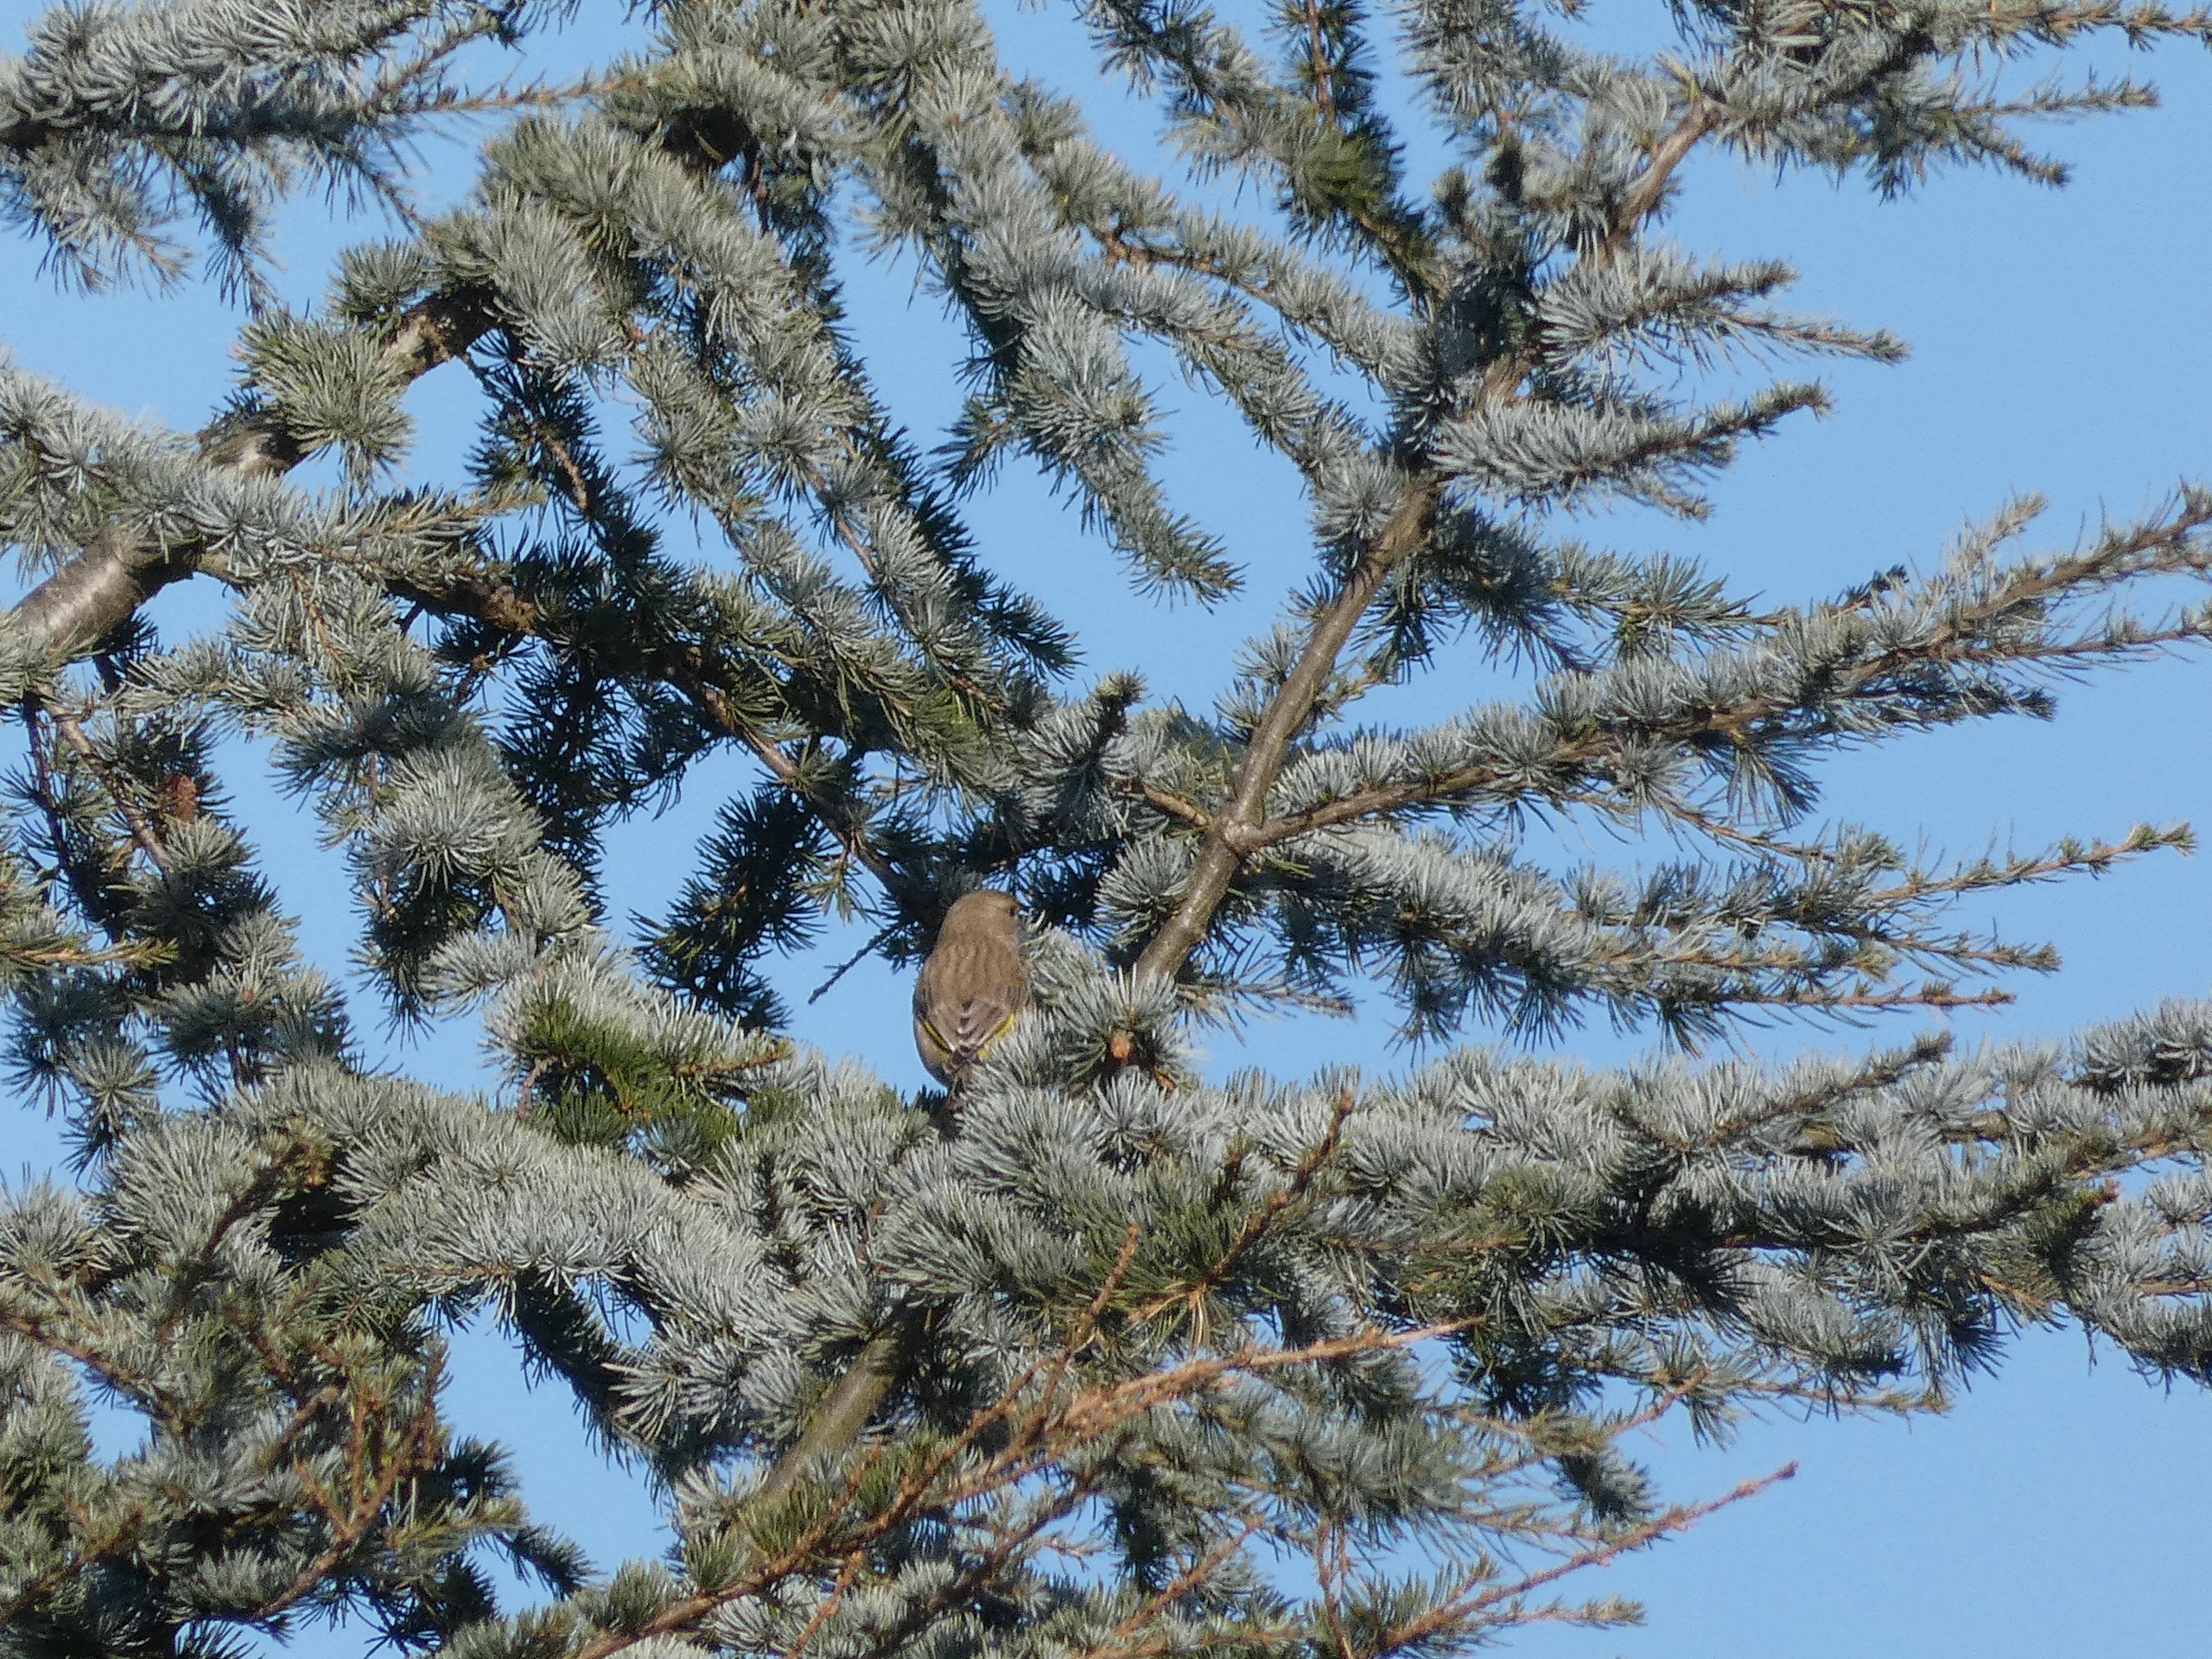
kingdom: Plantae
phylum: Tracheophyta
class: Liliopsida
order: Poales
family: Poaceae
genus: Chloris
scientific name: Chloris chloris
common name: Grønirisk
